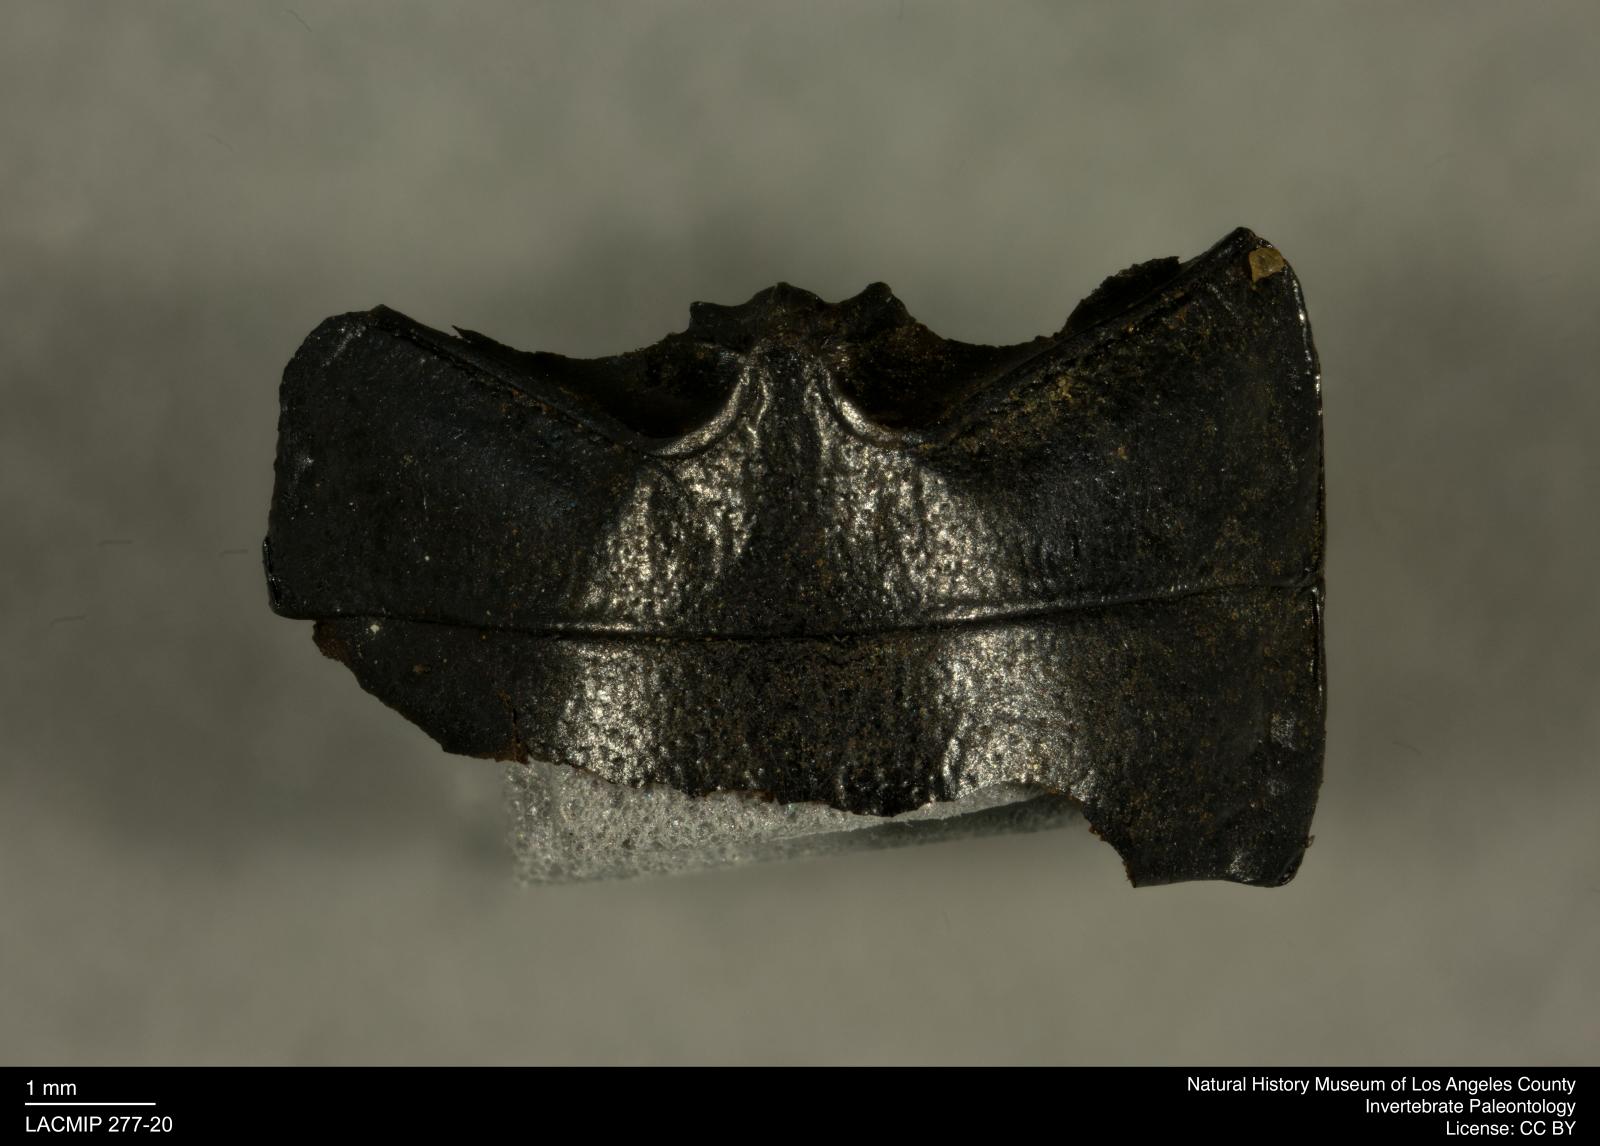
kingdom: Animalia
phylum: Arthropoda
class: Insecta
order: Coleoptera
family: Tenebrionidae
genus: Coniontis
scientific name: Coniontis abdominalis
